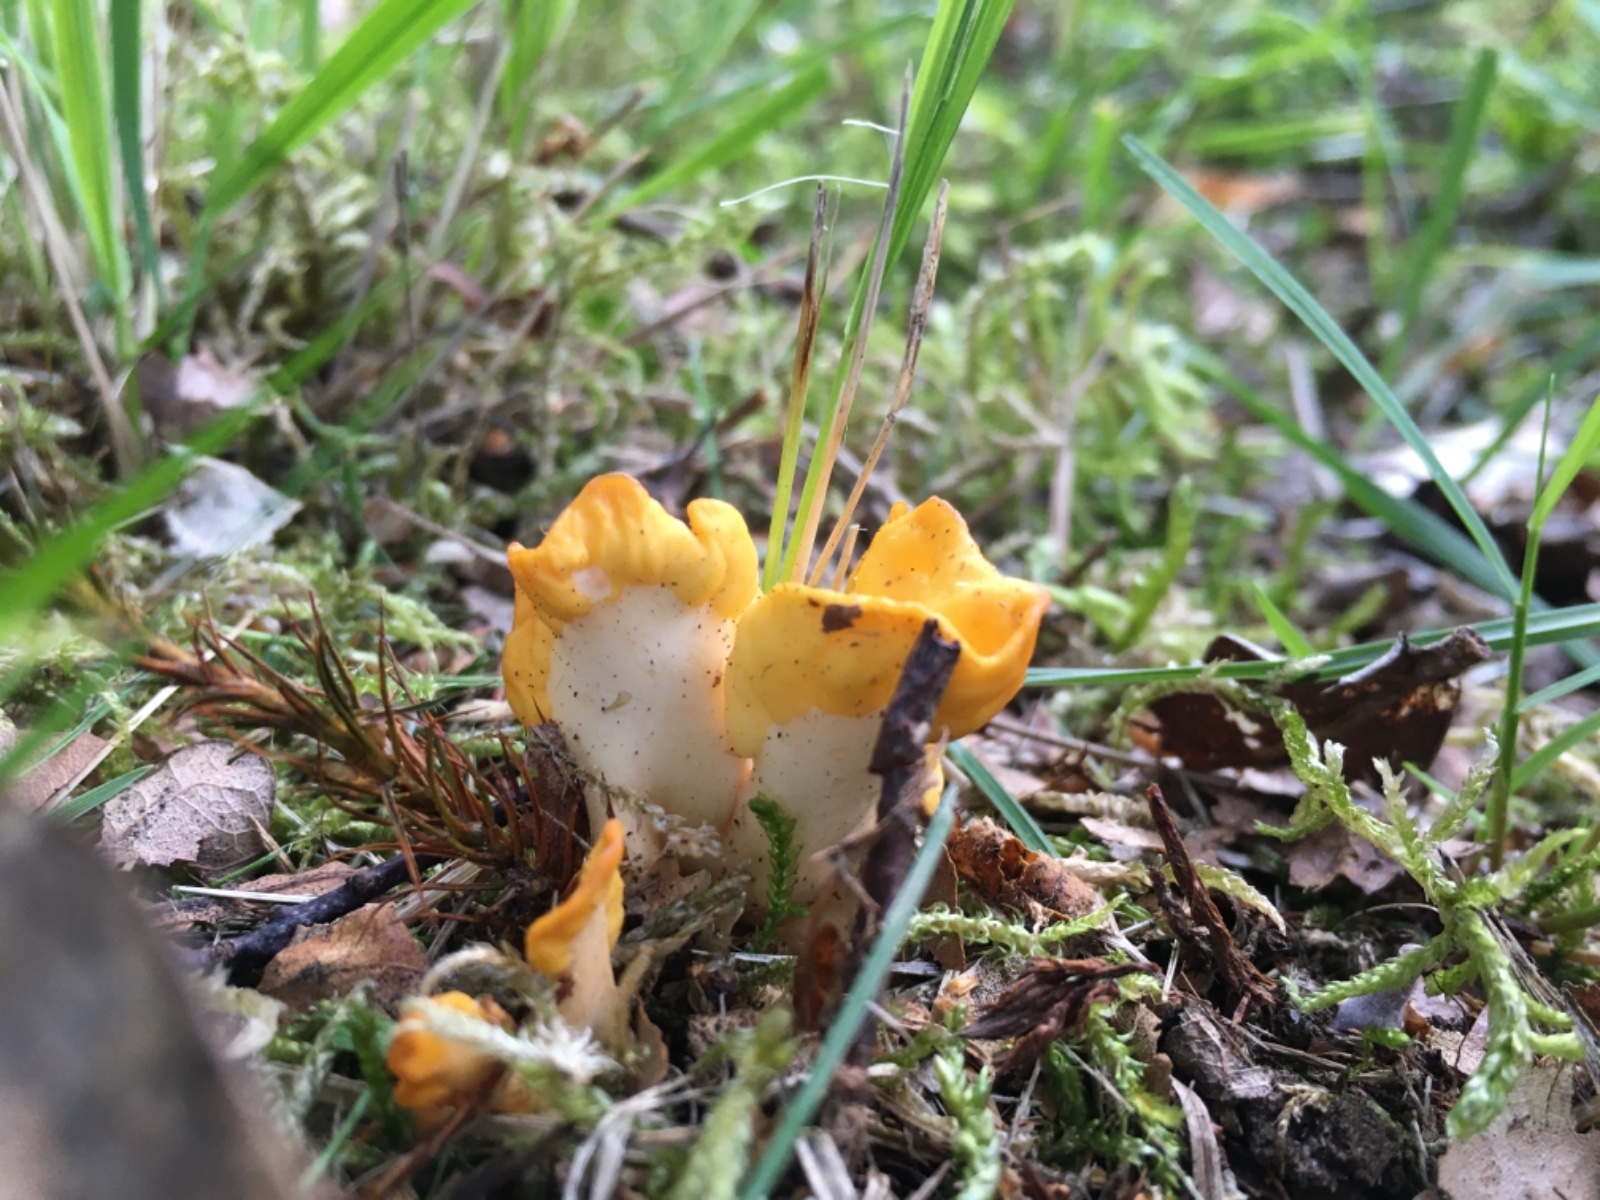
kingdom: Fungi
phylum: Ascomycota
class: Leotiomycetes
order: Rhytismatales
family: Cudoniaceae
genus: Spathularia
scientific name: Spathularia flavida
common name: gul spatelsvamp
